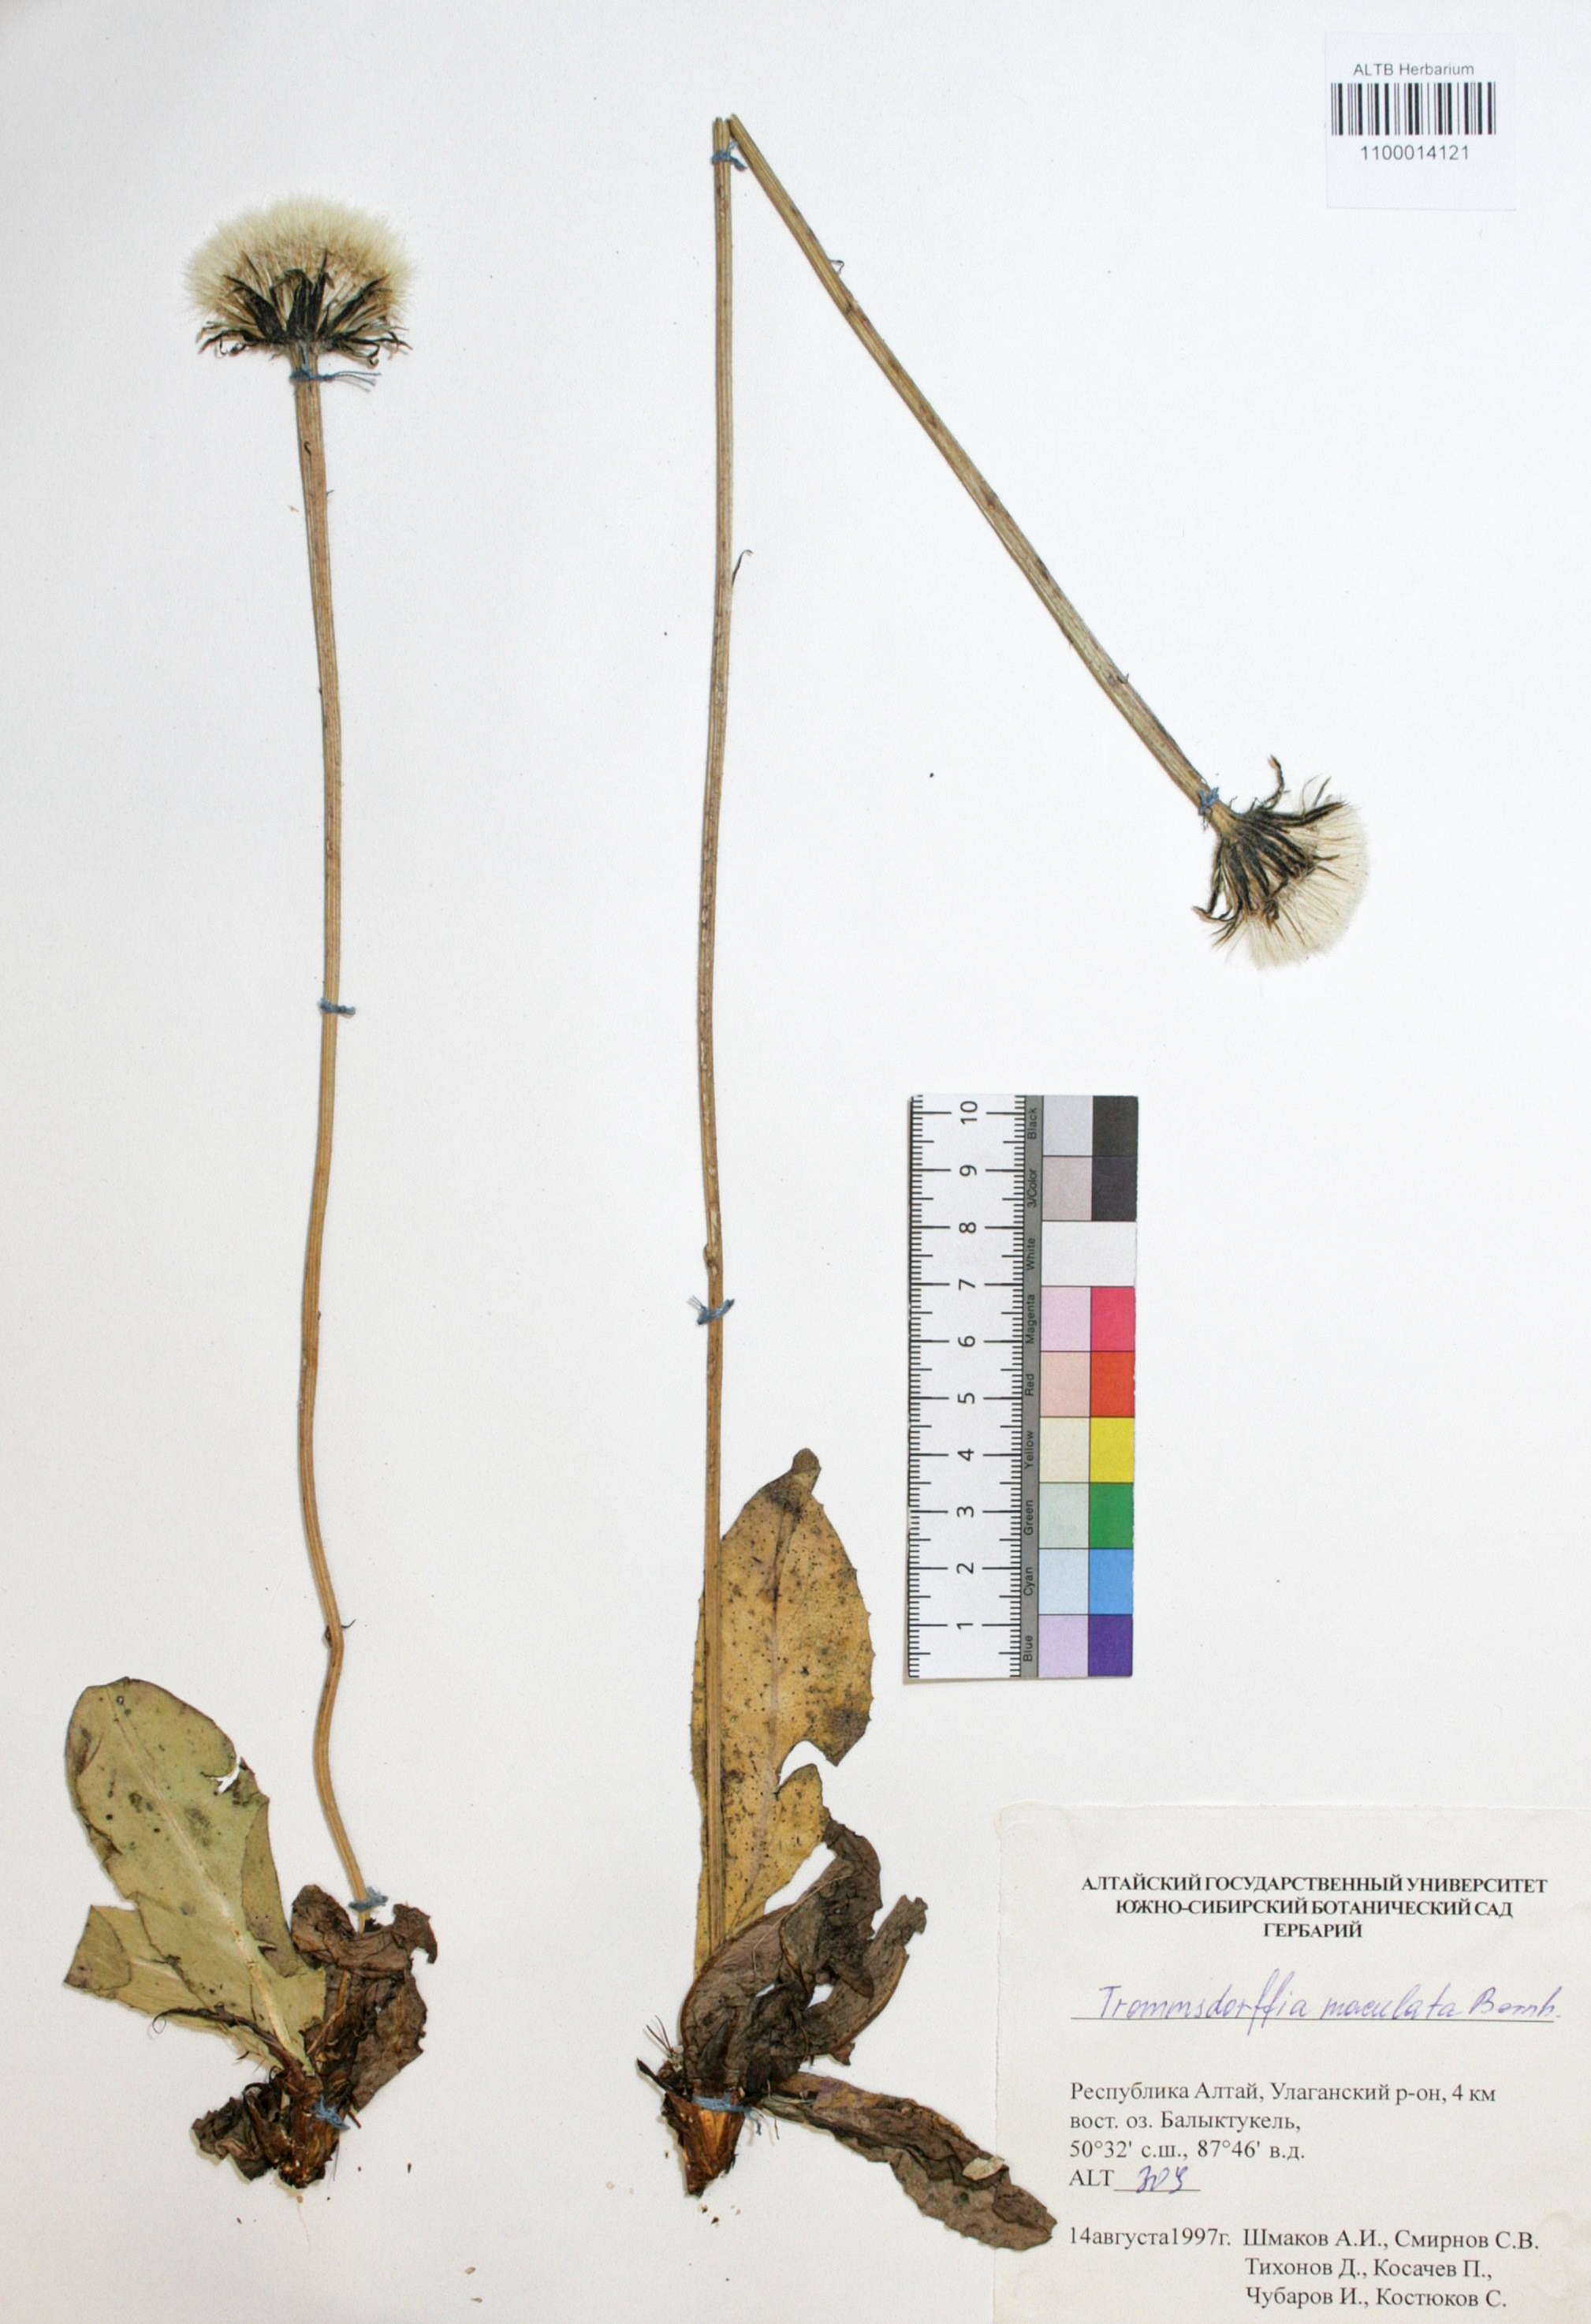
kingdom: Plantae
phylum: Tracheophyta
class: Magnoliopsida
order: Asterales
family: Asteraceae
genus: Trommsdorffia
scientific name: Trommsdorffia maculata
